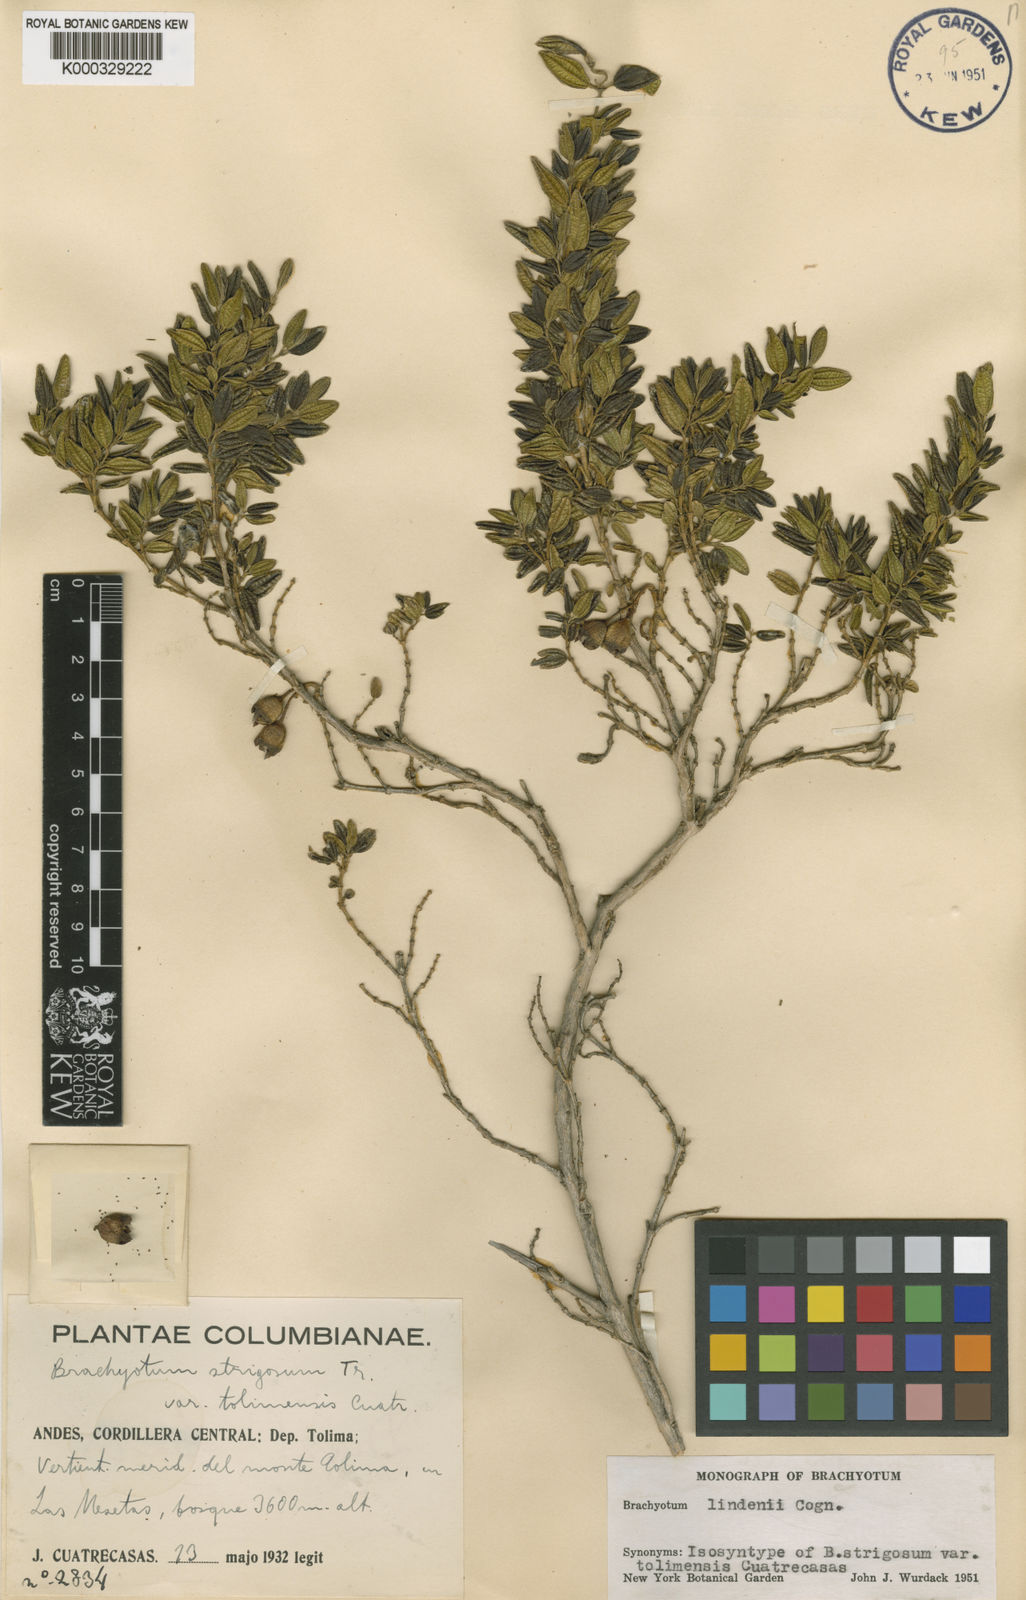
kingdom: Plantae
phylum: Tracheophyta
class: Magnoliopsida
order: Myrtales
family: Melastomataceae
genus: Brachyotum
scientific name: Brachyotum lindenii
